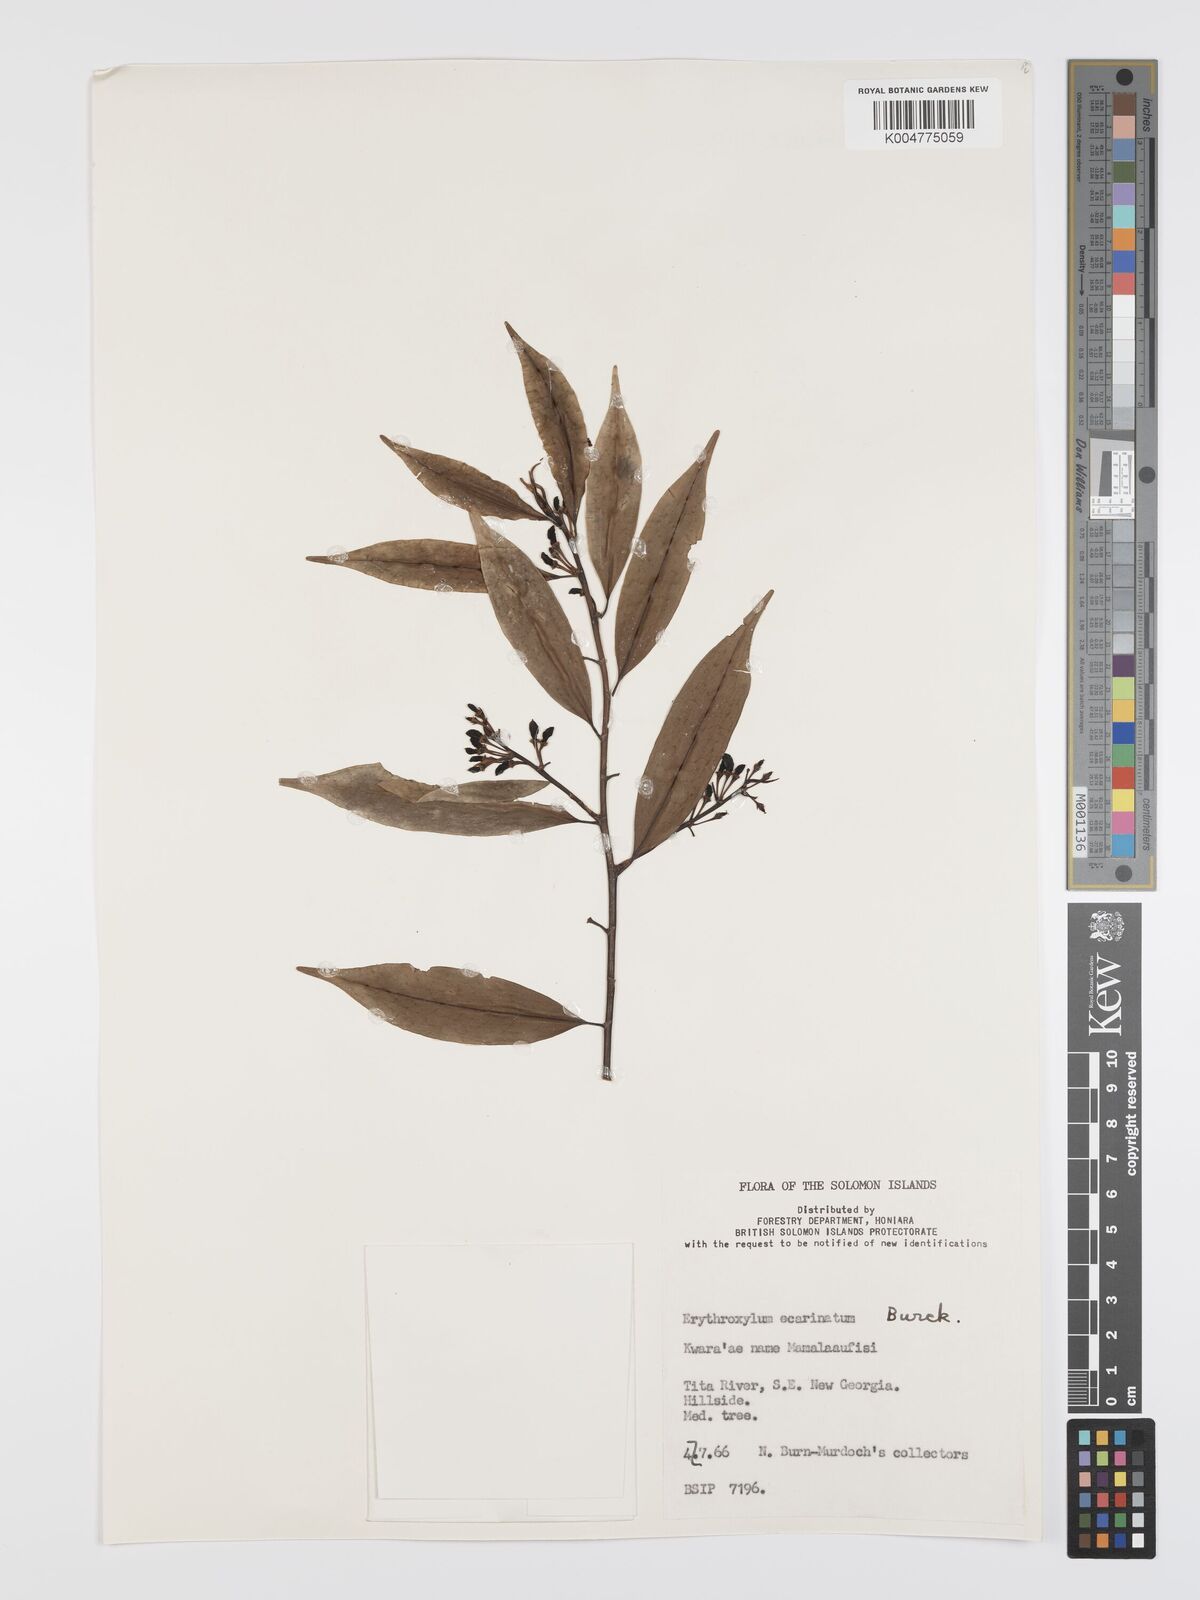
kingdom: Plantae
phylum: Tracheophyta
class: Magnoliopsida
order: Malpighiales
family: Erythroxylaceae
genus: Erythroxylum
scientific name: Erythroxylum ecarinatum
